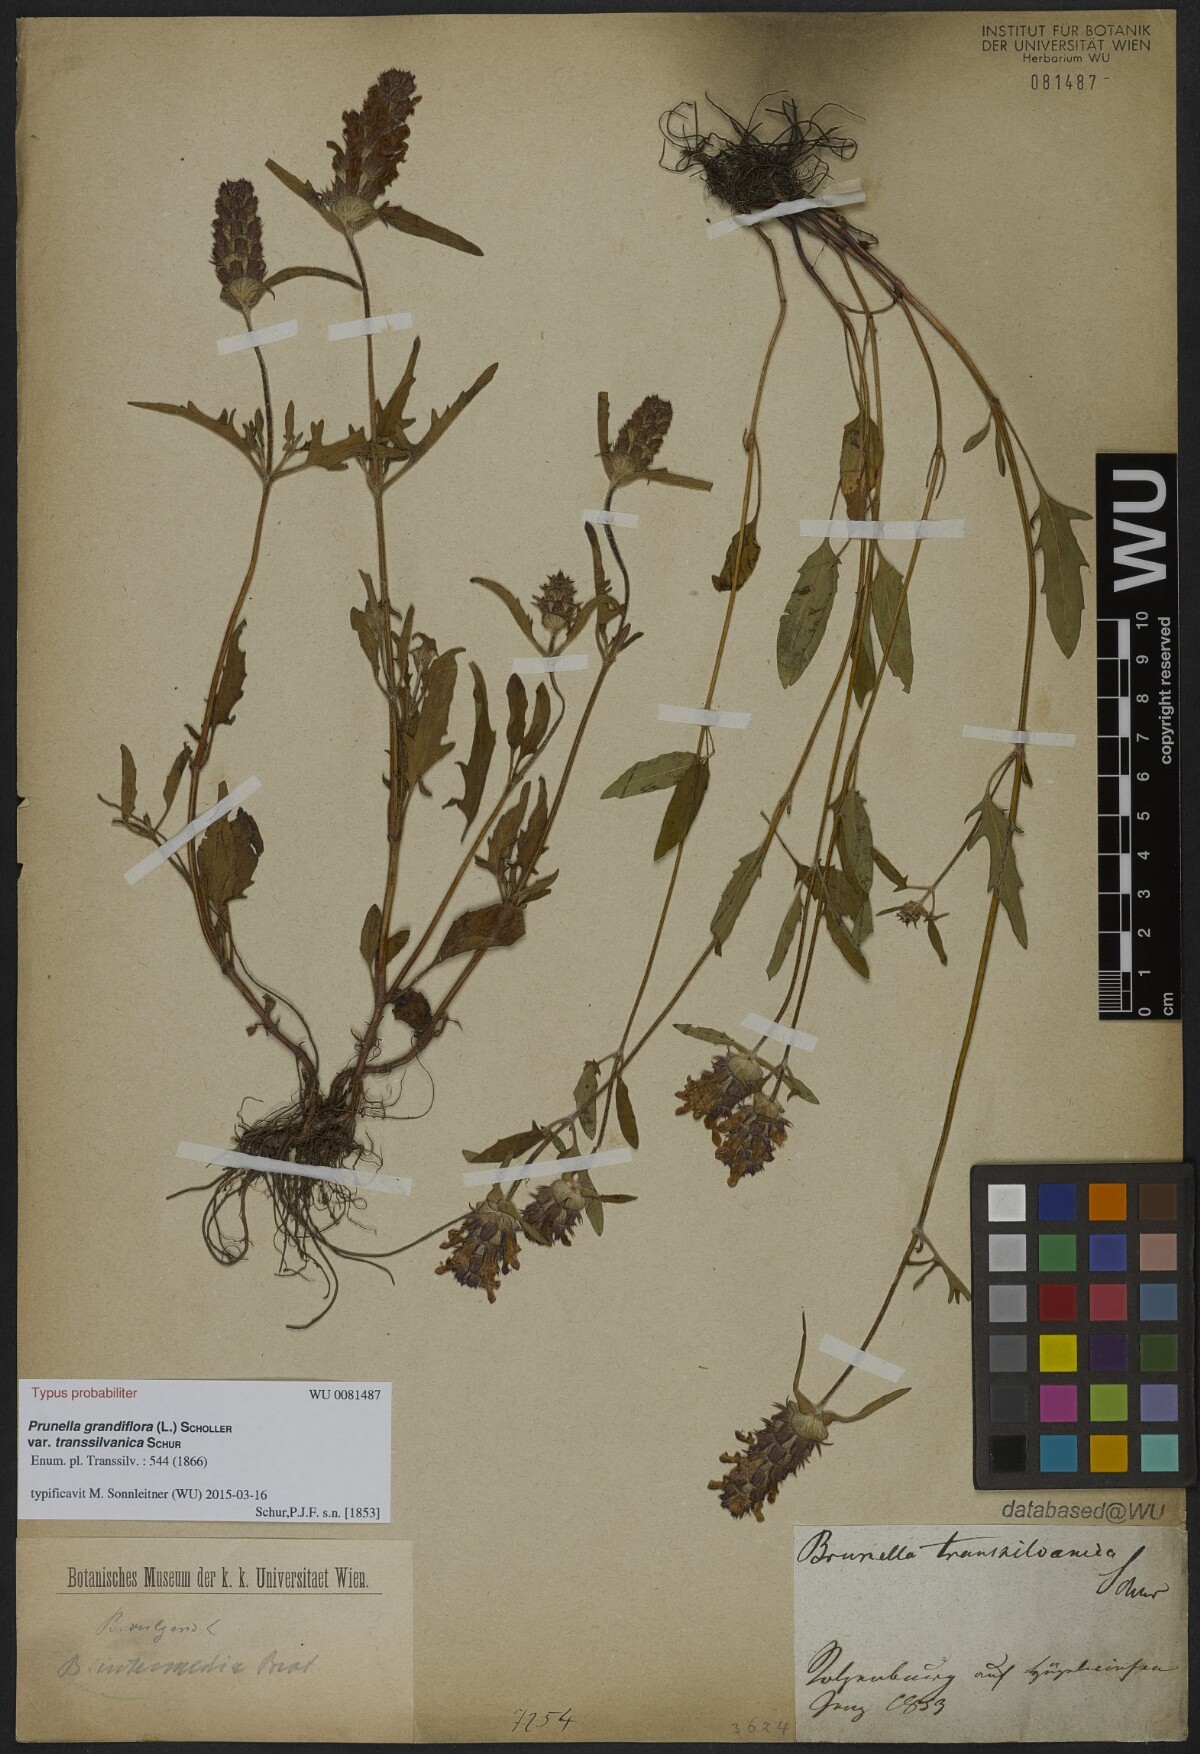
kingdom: Plantae
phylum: Tracheophyta
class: Magnoliopsida
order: Lamiales
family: Lamiaceae
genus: Prunella
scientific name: Prunella grandiflora
